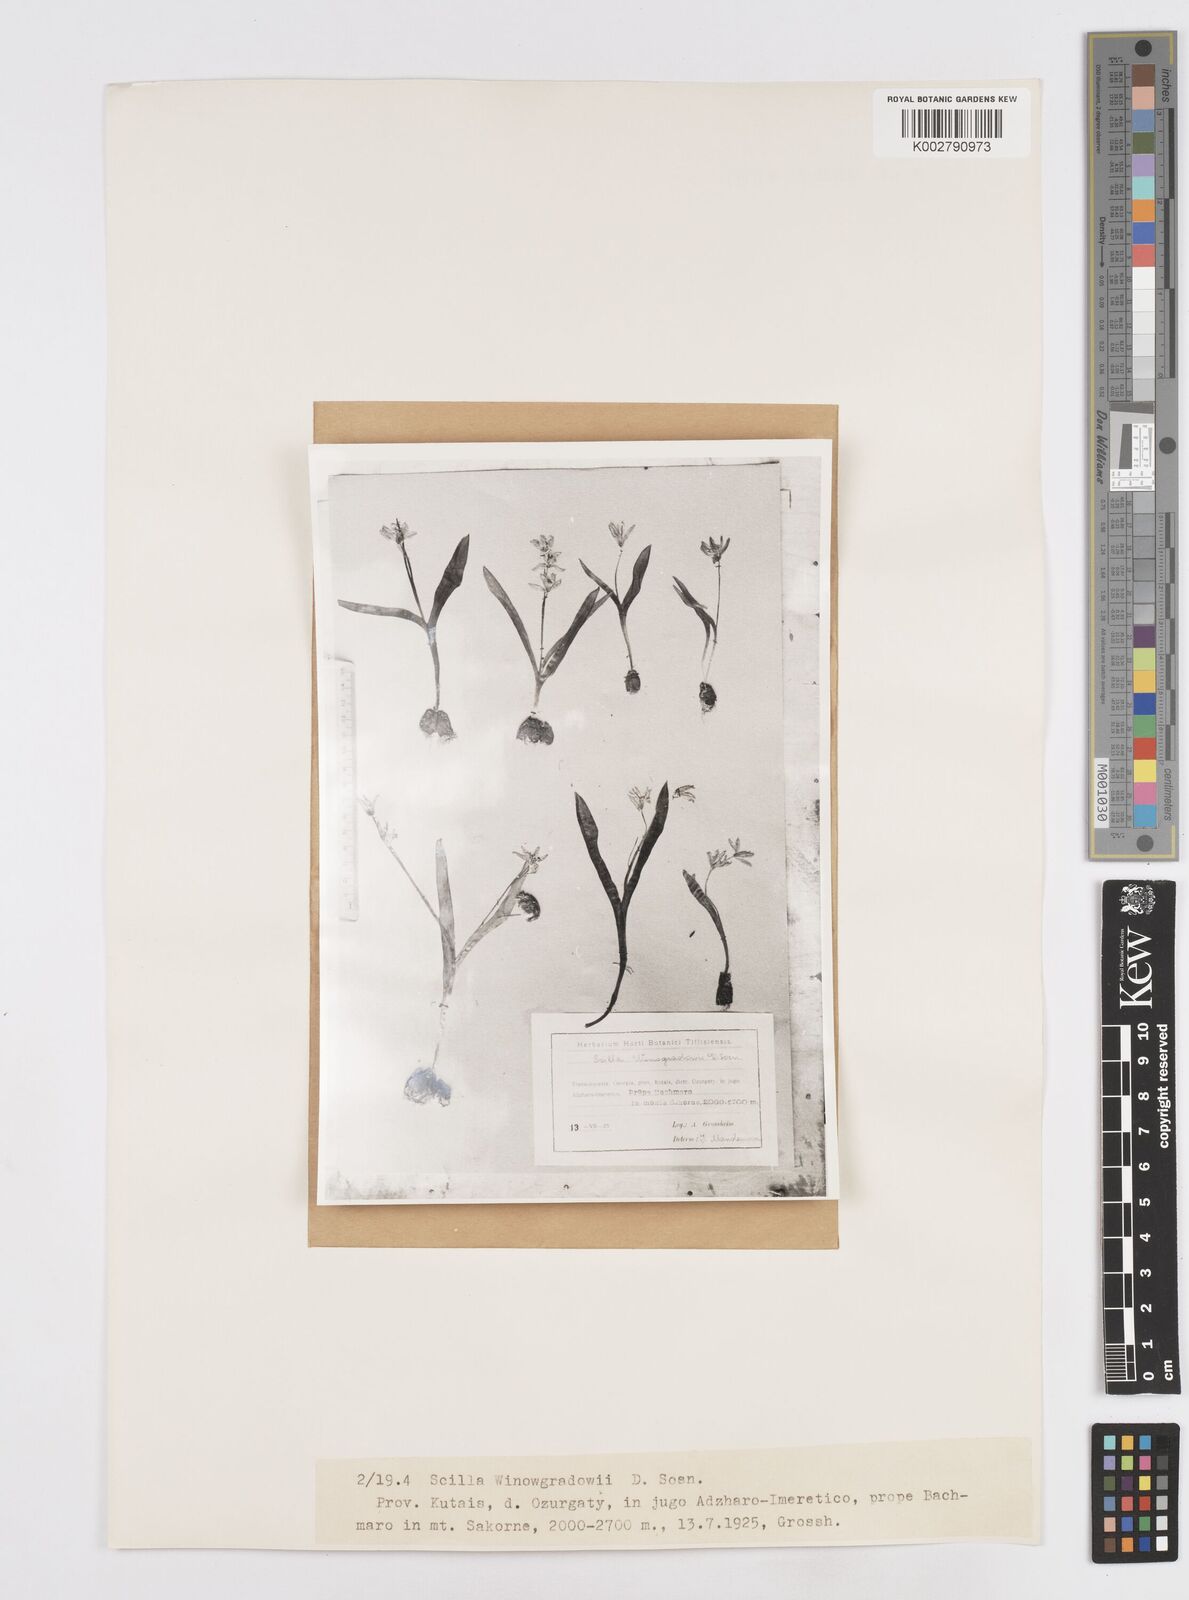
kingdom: Plantae
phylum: Tracheophyta
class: Liliopsida
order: Asparagales
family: Asparagaceae
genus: Scilla
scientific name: Scilla monanthos
